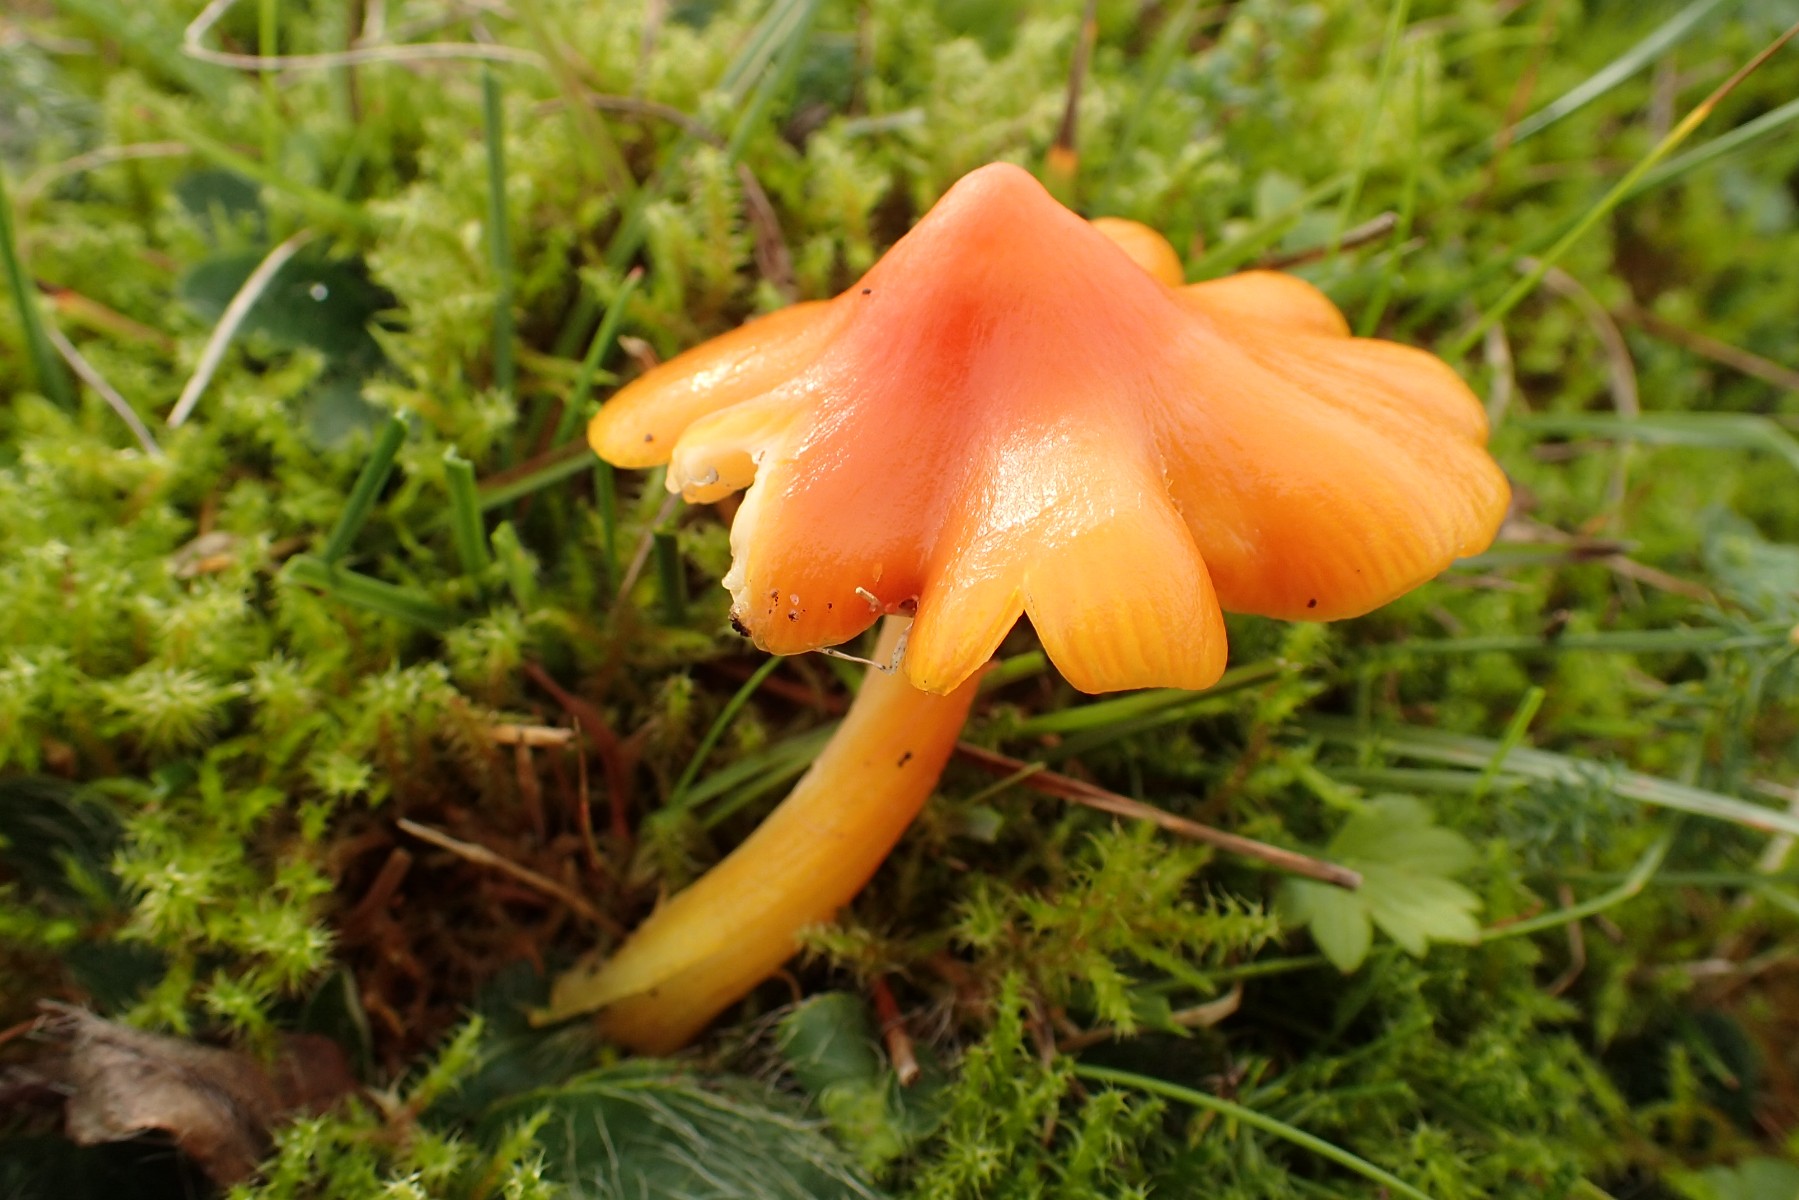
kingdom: Fungi
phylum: Basidiomycota
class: Agaricomycetes
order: Agaricales
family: Hygrophoraceae
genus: Hygrocybe
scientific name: Hygrocybe acutoconica
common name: spidspuklet vokshat
